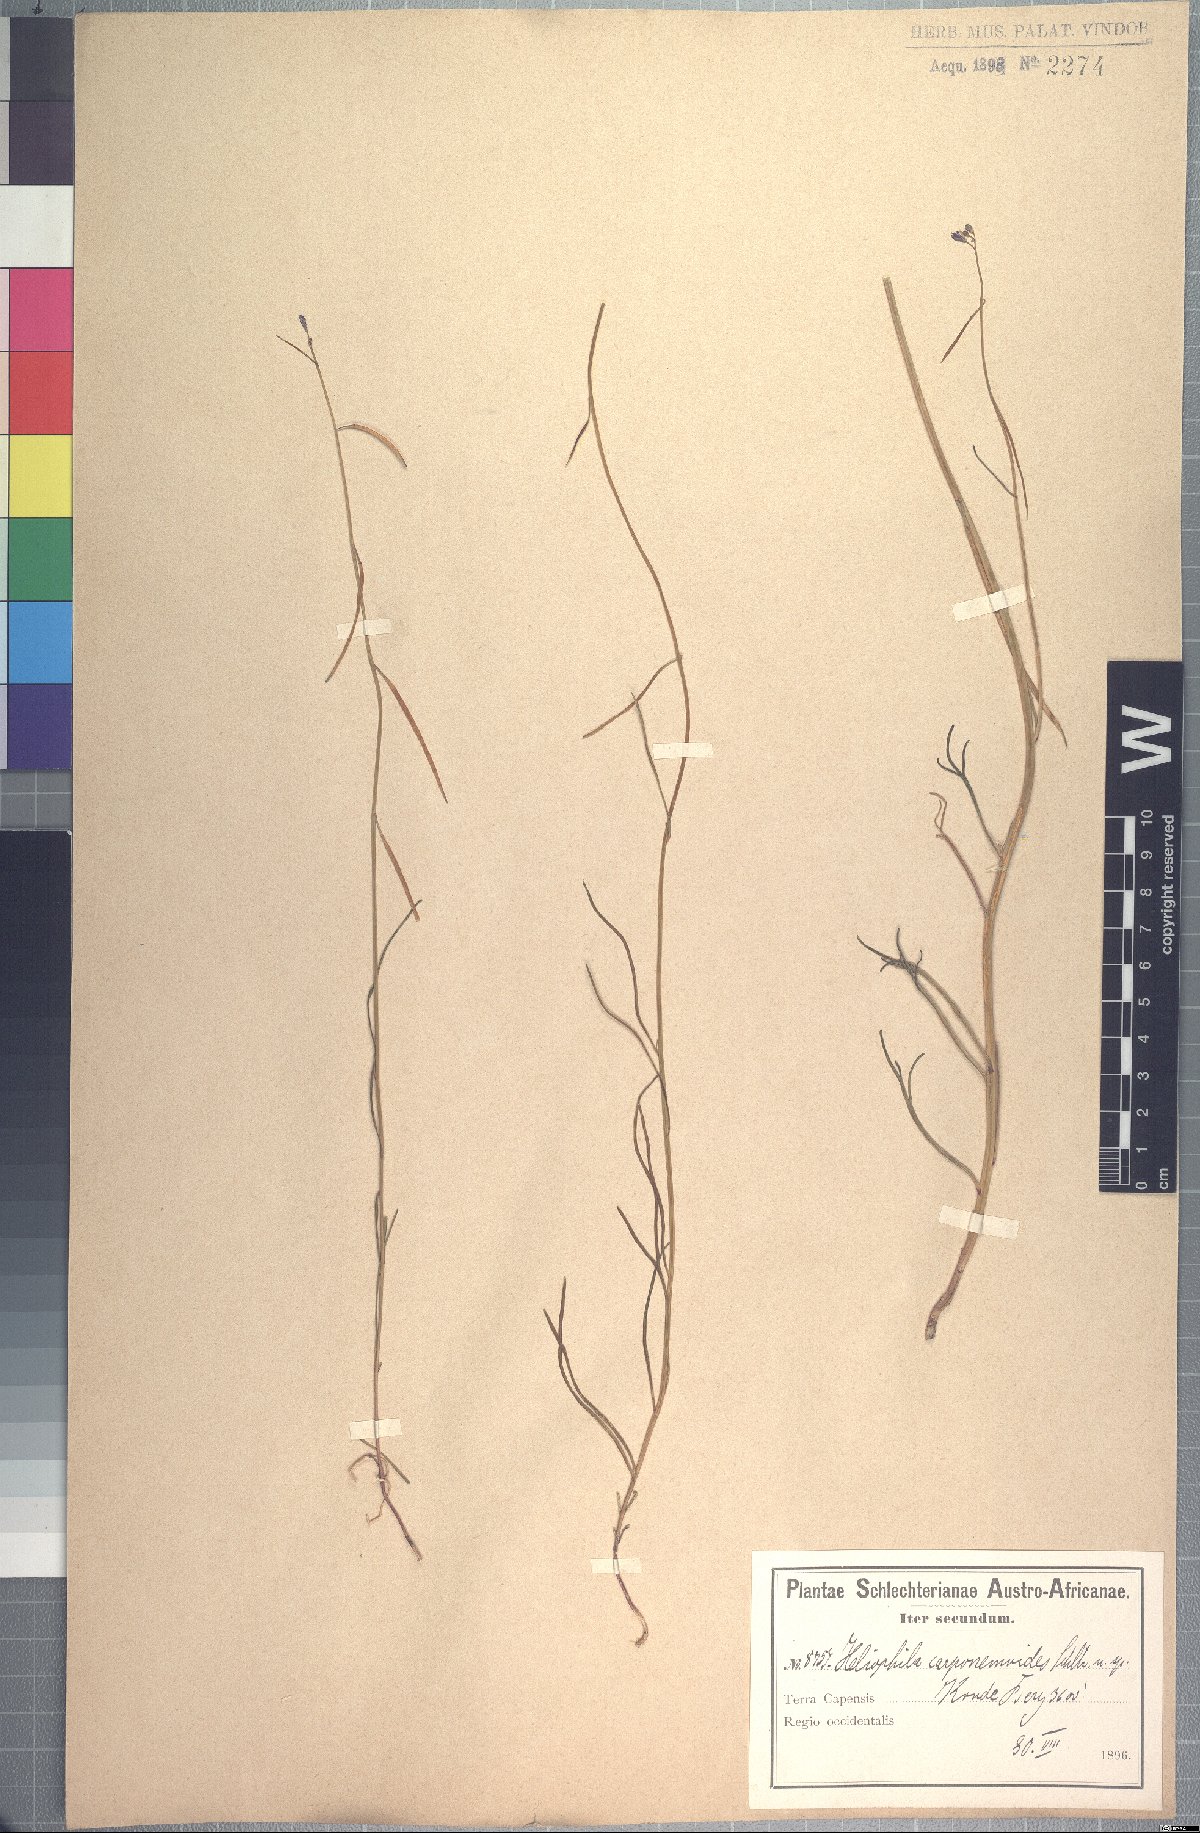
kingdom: Plantae
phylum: Tracheophyta
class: Magnoliopsida
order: Brassicales
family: Brassicaceae
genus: Heliophila
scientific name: Heliophila descurva
